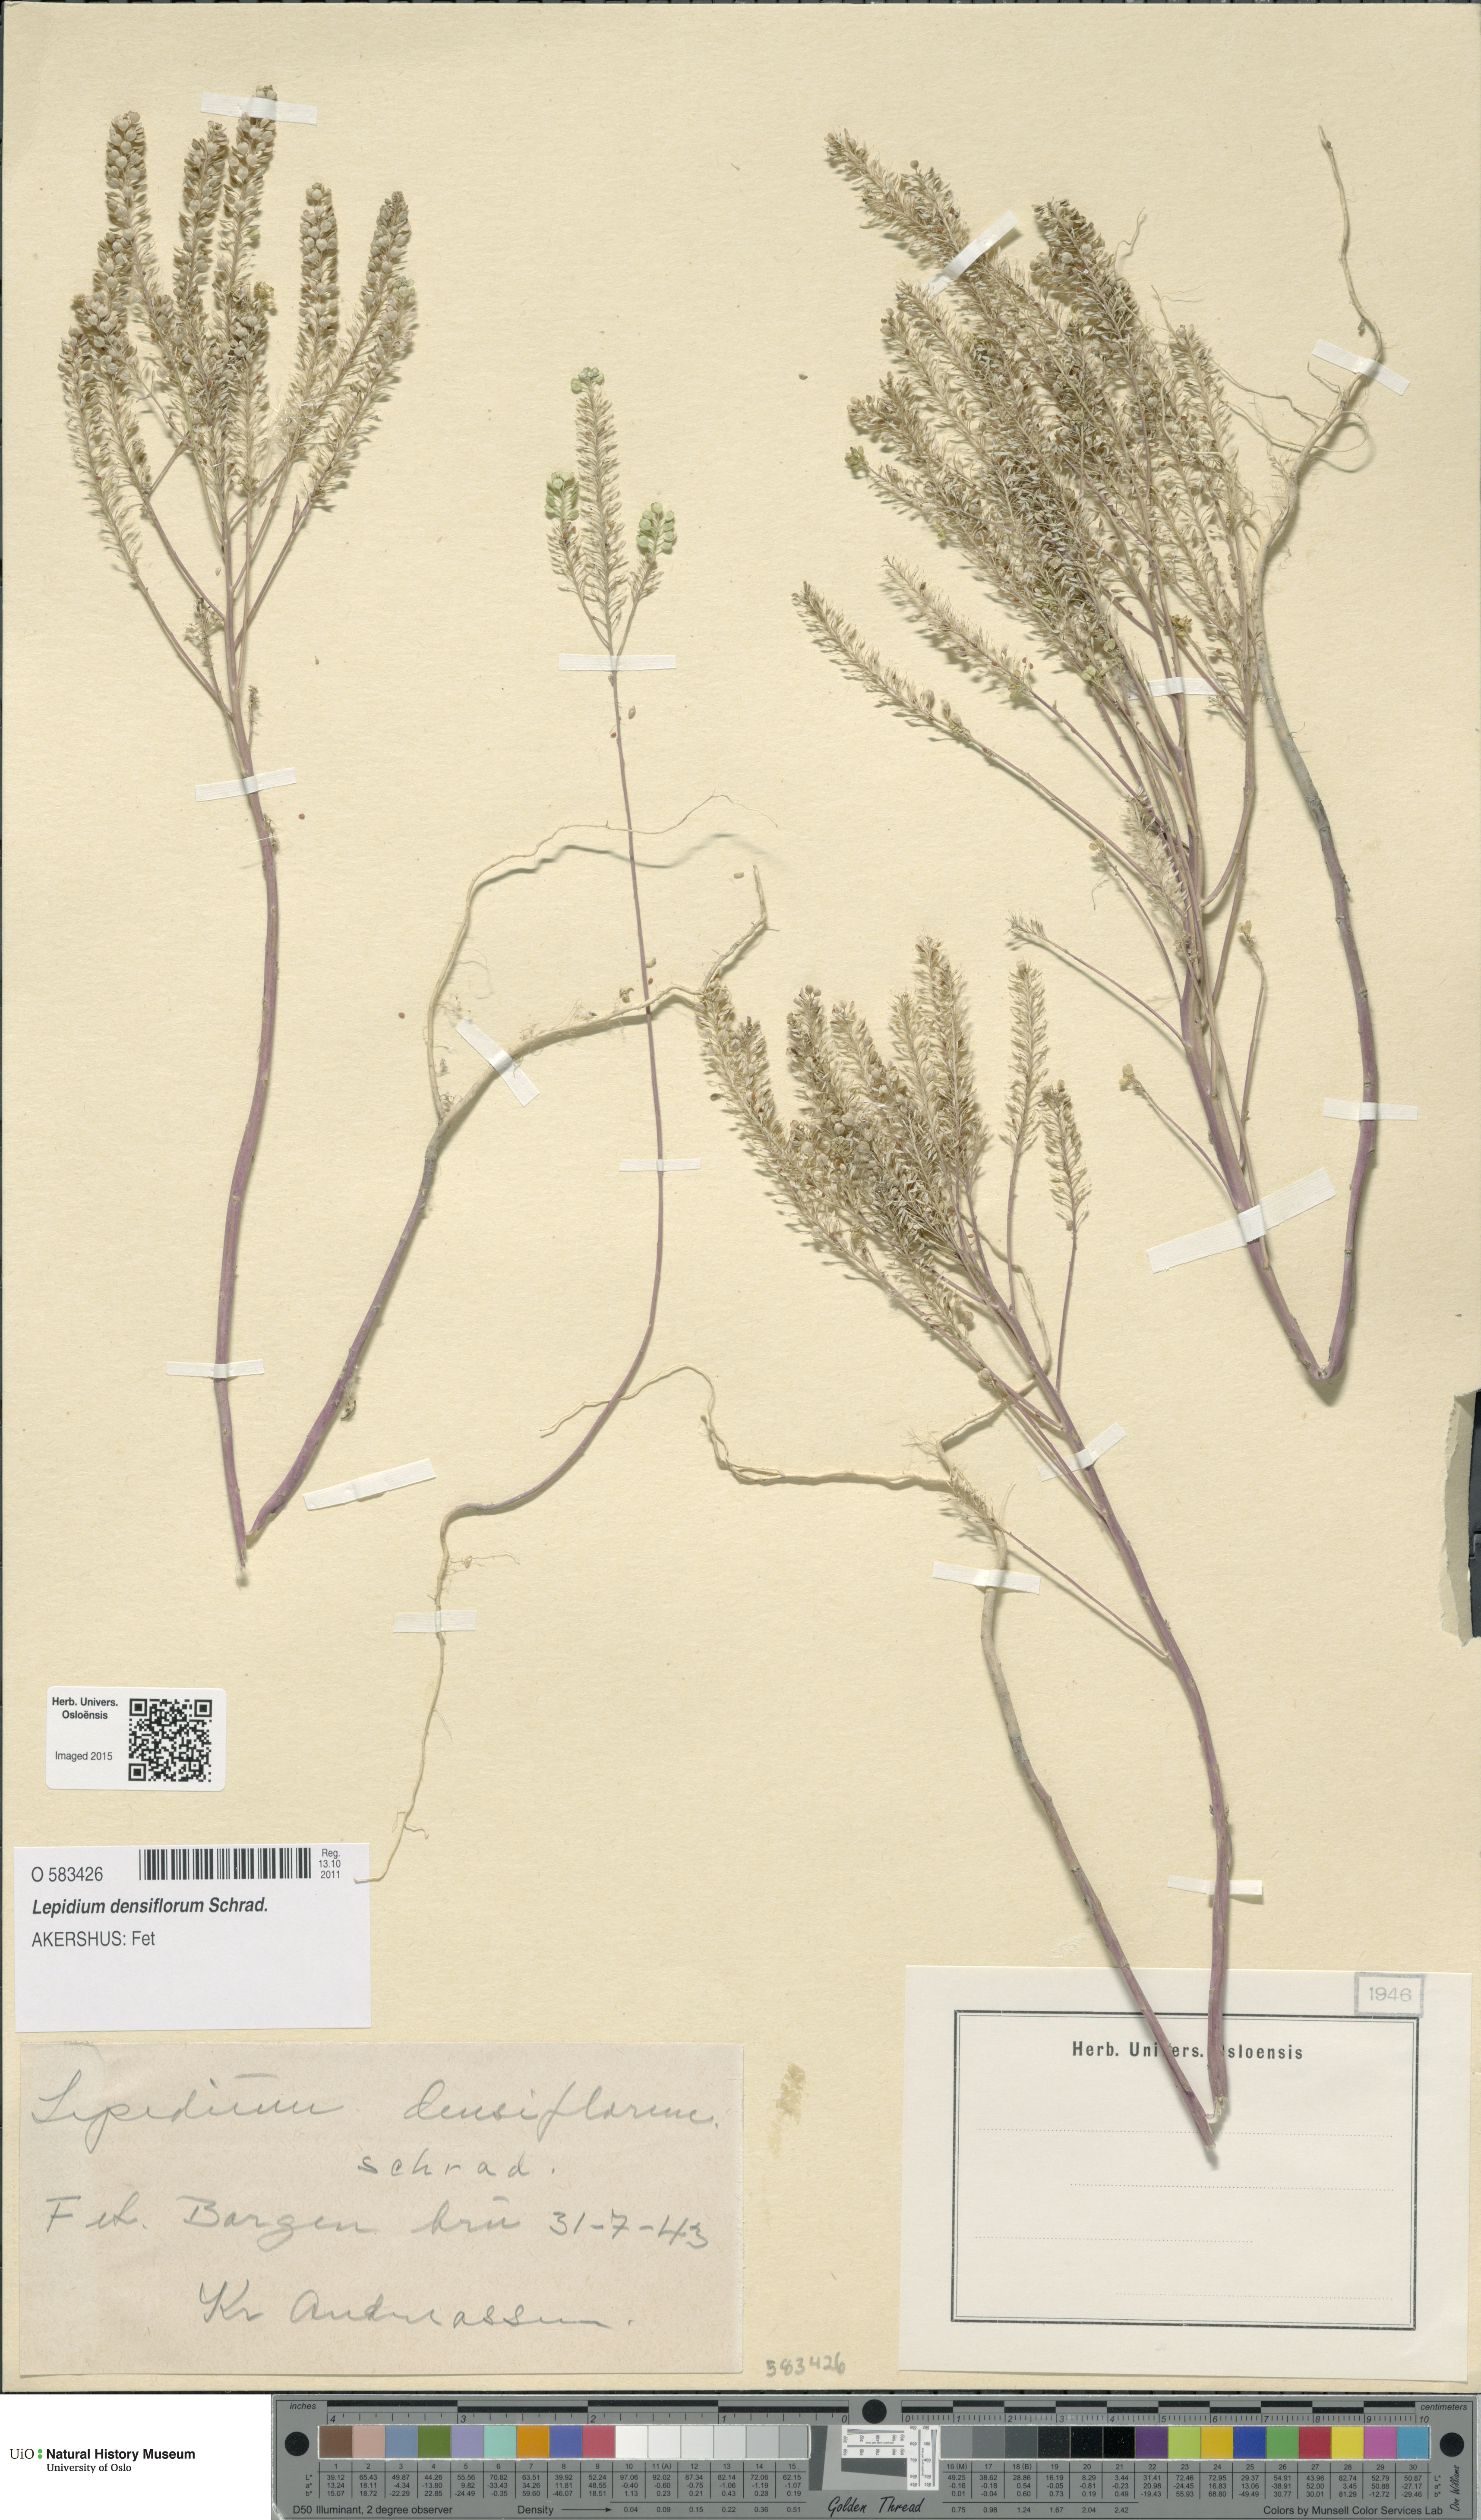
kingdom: Plantae
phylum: Tracheophyta
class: Magnoliopsida
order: Brassicales
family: Brassicaceae
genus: Lepidium
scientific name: Lepidium densiflorum
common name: Miner's pepperwort
